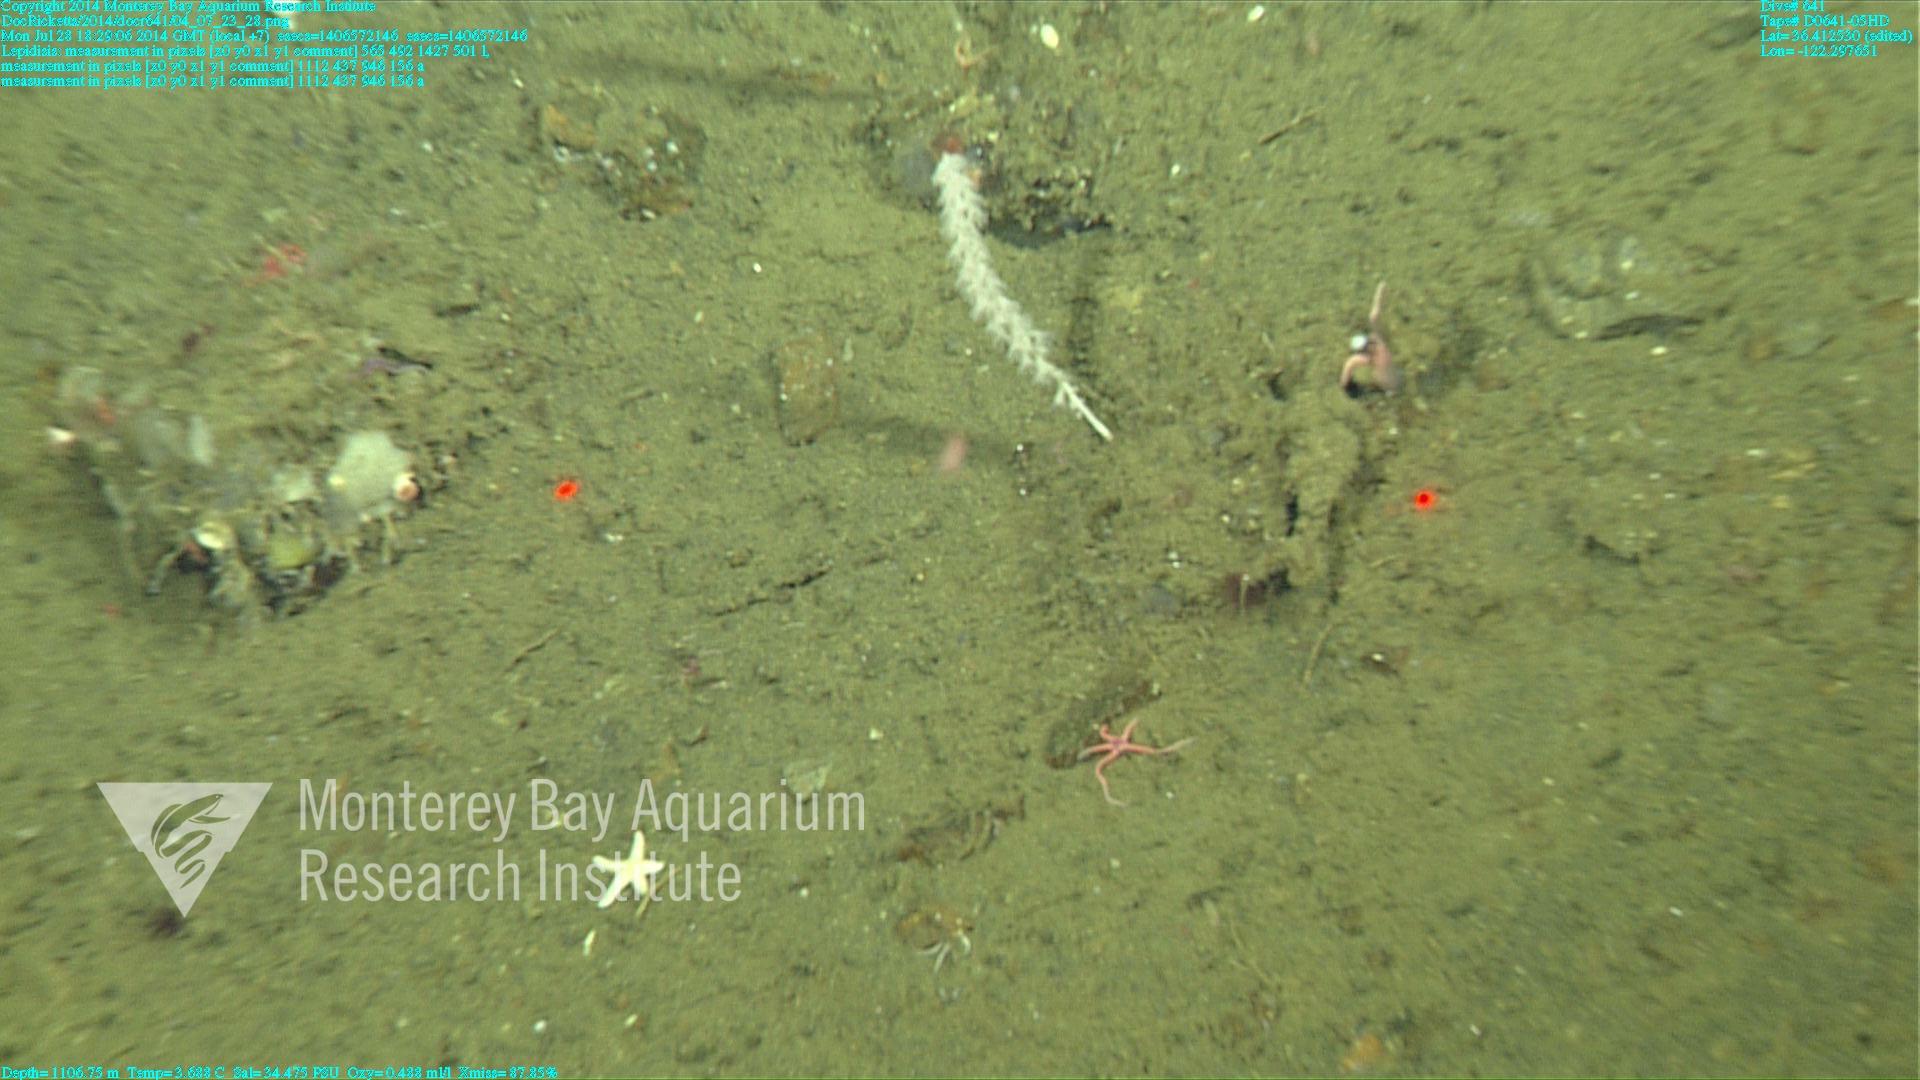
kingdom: Animalia
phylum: Cnidaria
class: Anthozoa
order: Scleralcyonacea
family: Keratoisididae
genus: Lepidisis
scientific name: Lepidisis
